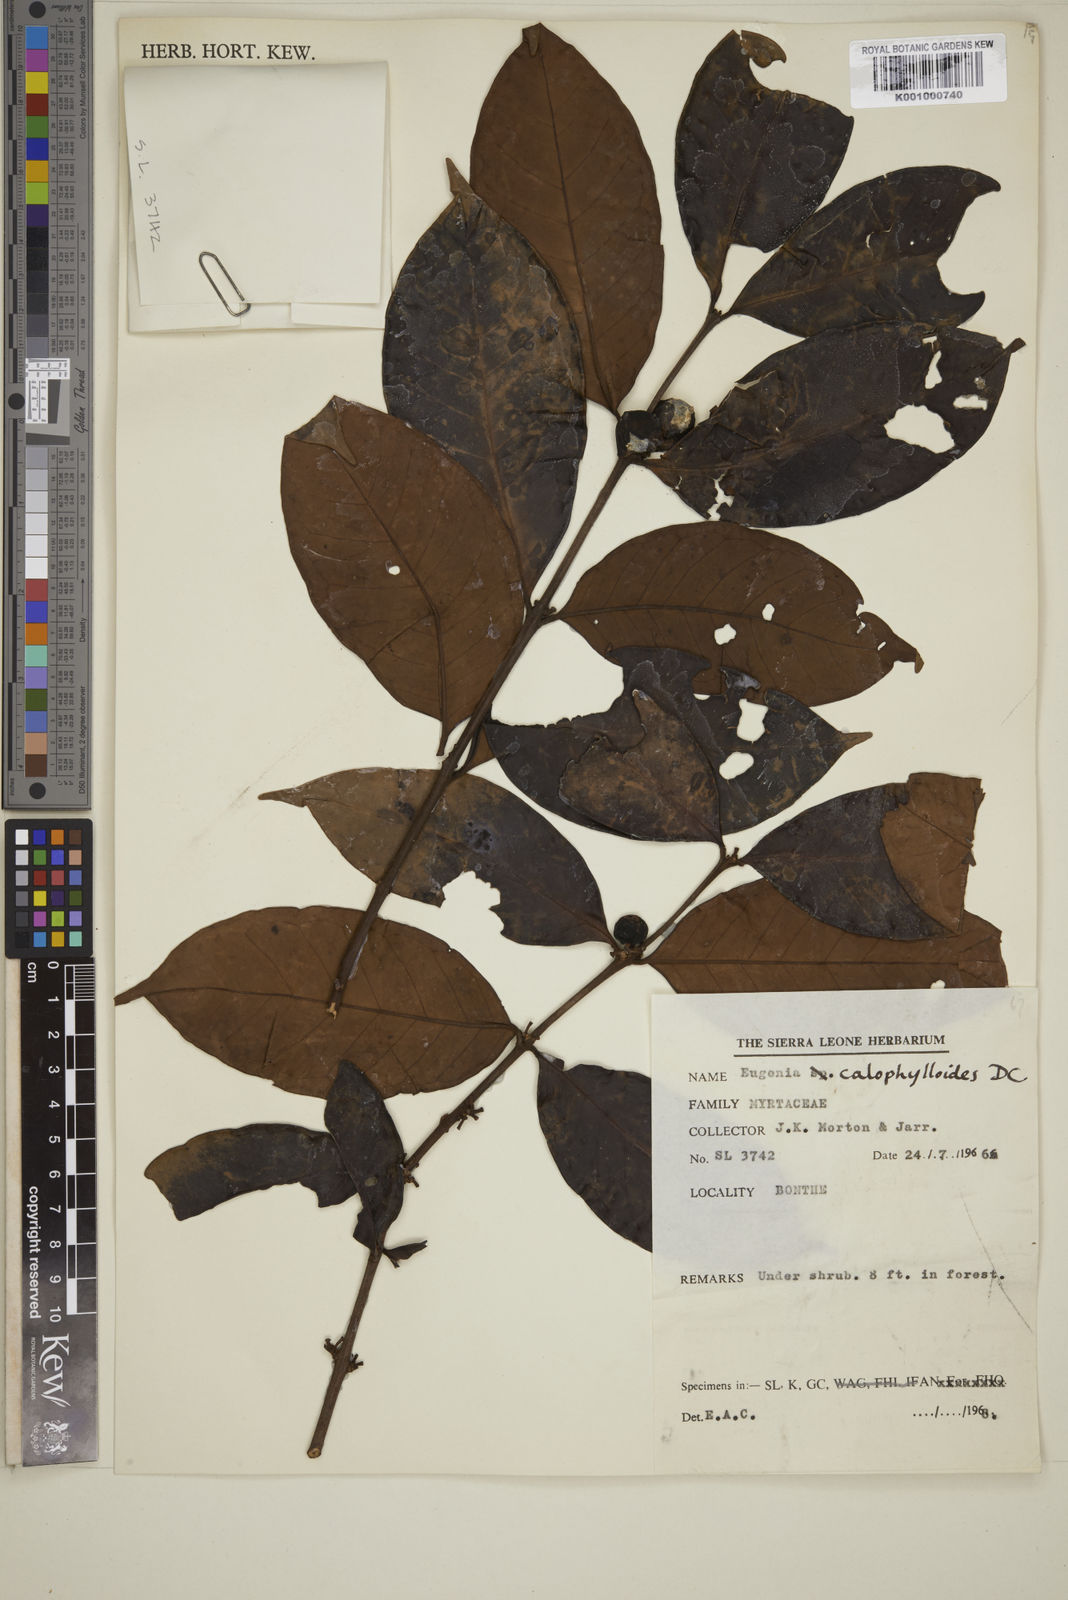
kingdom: Plantae
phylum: Tracheophyta
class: Magnoliopsida
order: Myrtales
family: Myrtaceae
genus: Eugenia
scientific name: Eugenia calophylloides
